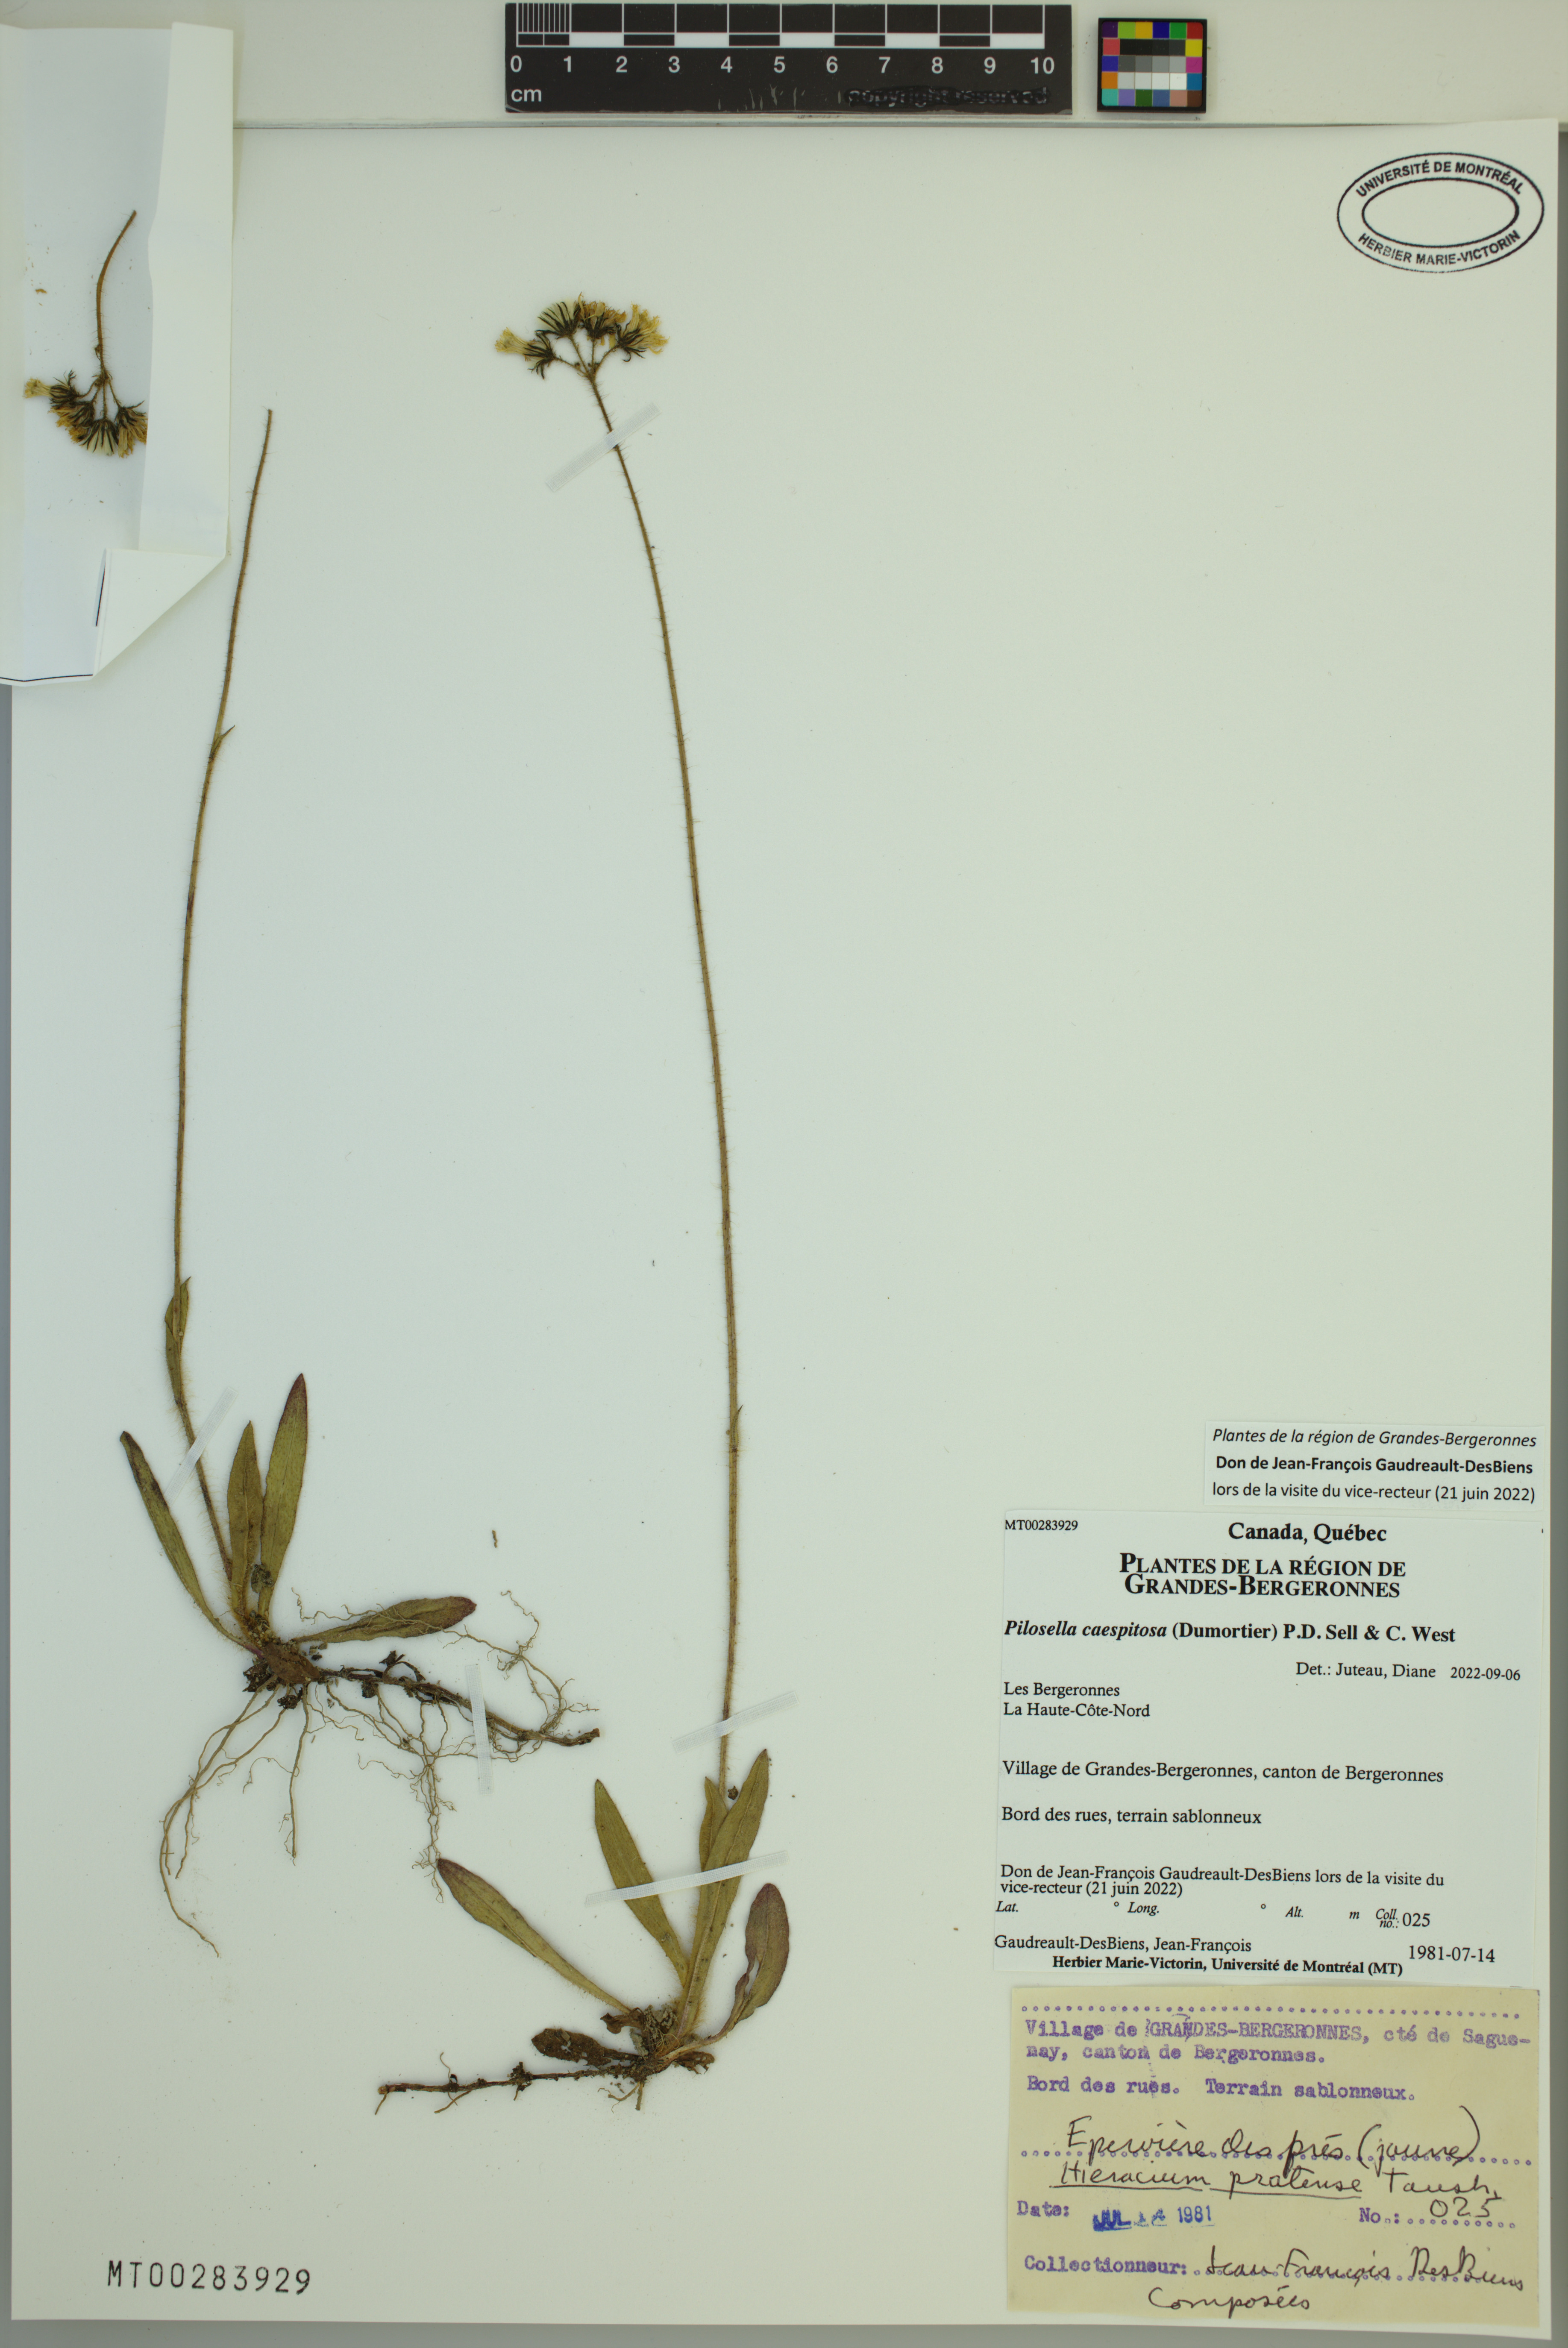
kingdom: Plantae
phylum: Tracheophyta
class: Magnoliopsida
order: Asterales
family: Asteraceae
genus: Pilosella
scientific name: Pilosella caespitosa
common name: Yellow fox-and-cubs
